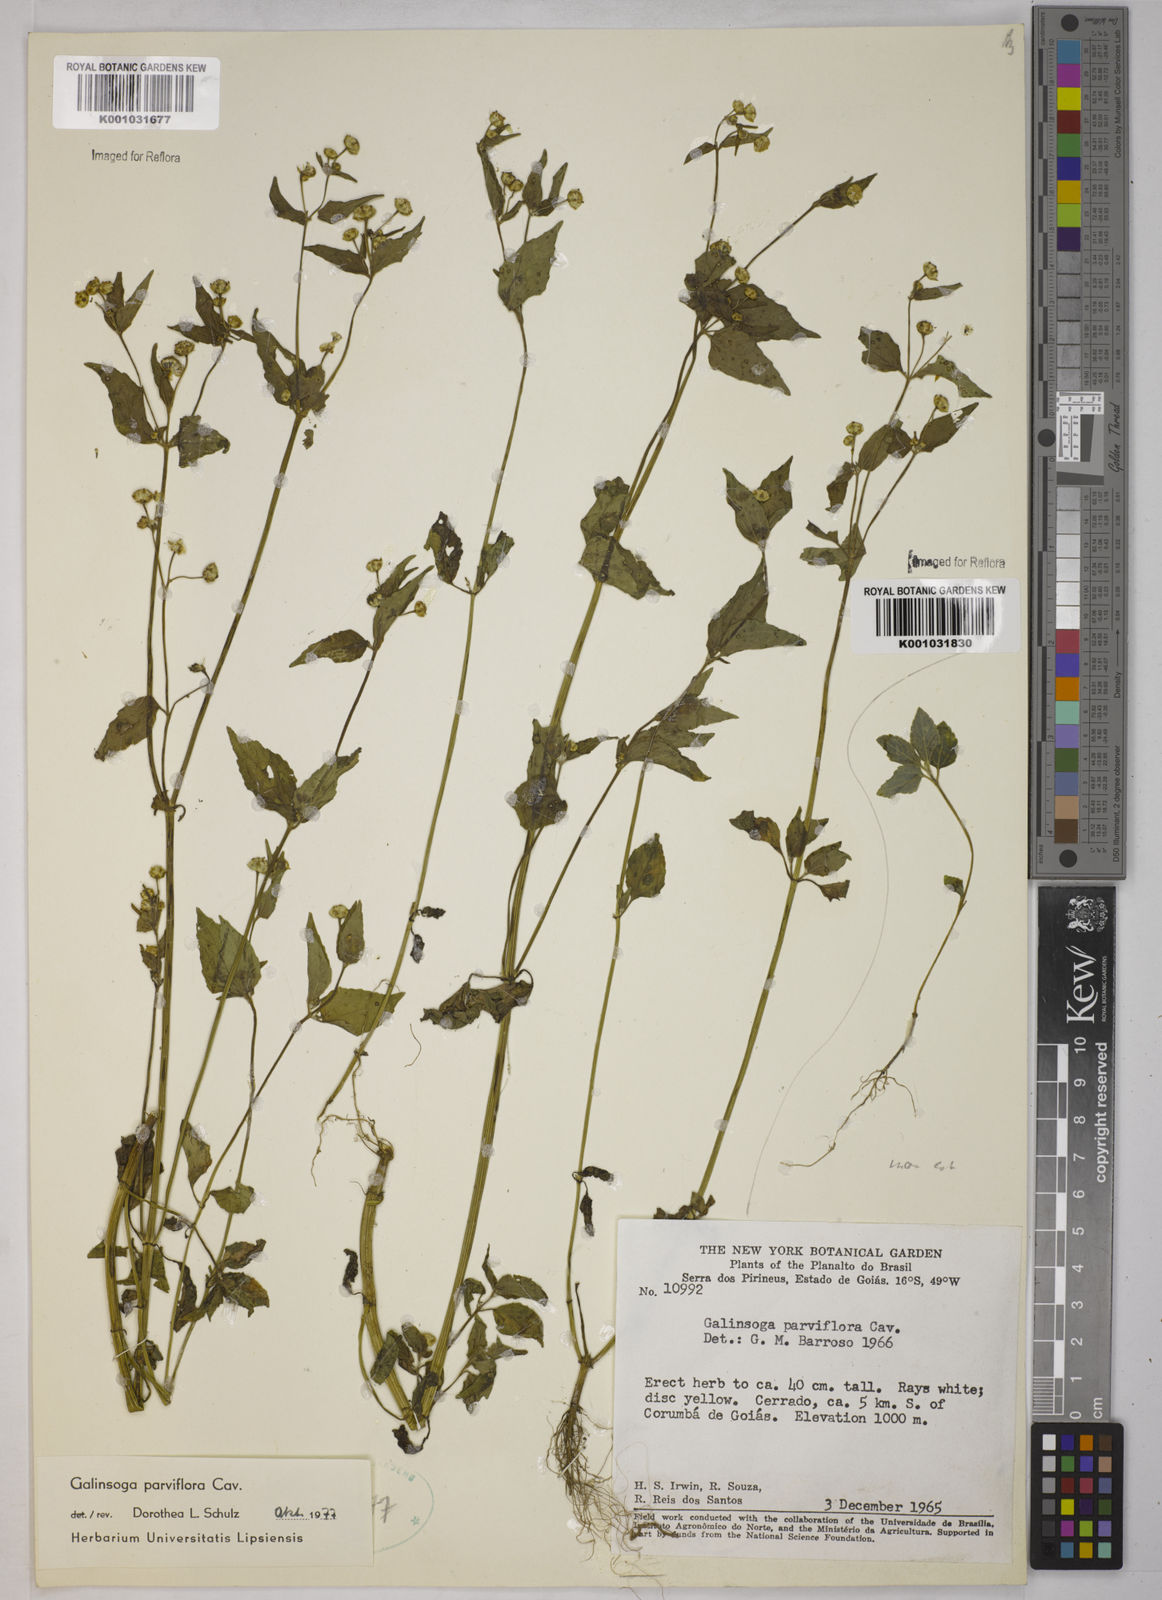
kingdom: Plantae
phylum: Tracheophyta
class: Magnoliopsida
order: Asterales
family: Asteraceae
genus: Galinsoga
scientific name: Galinsoga parviflora
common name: Gallant soldier
